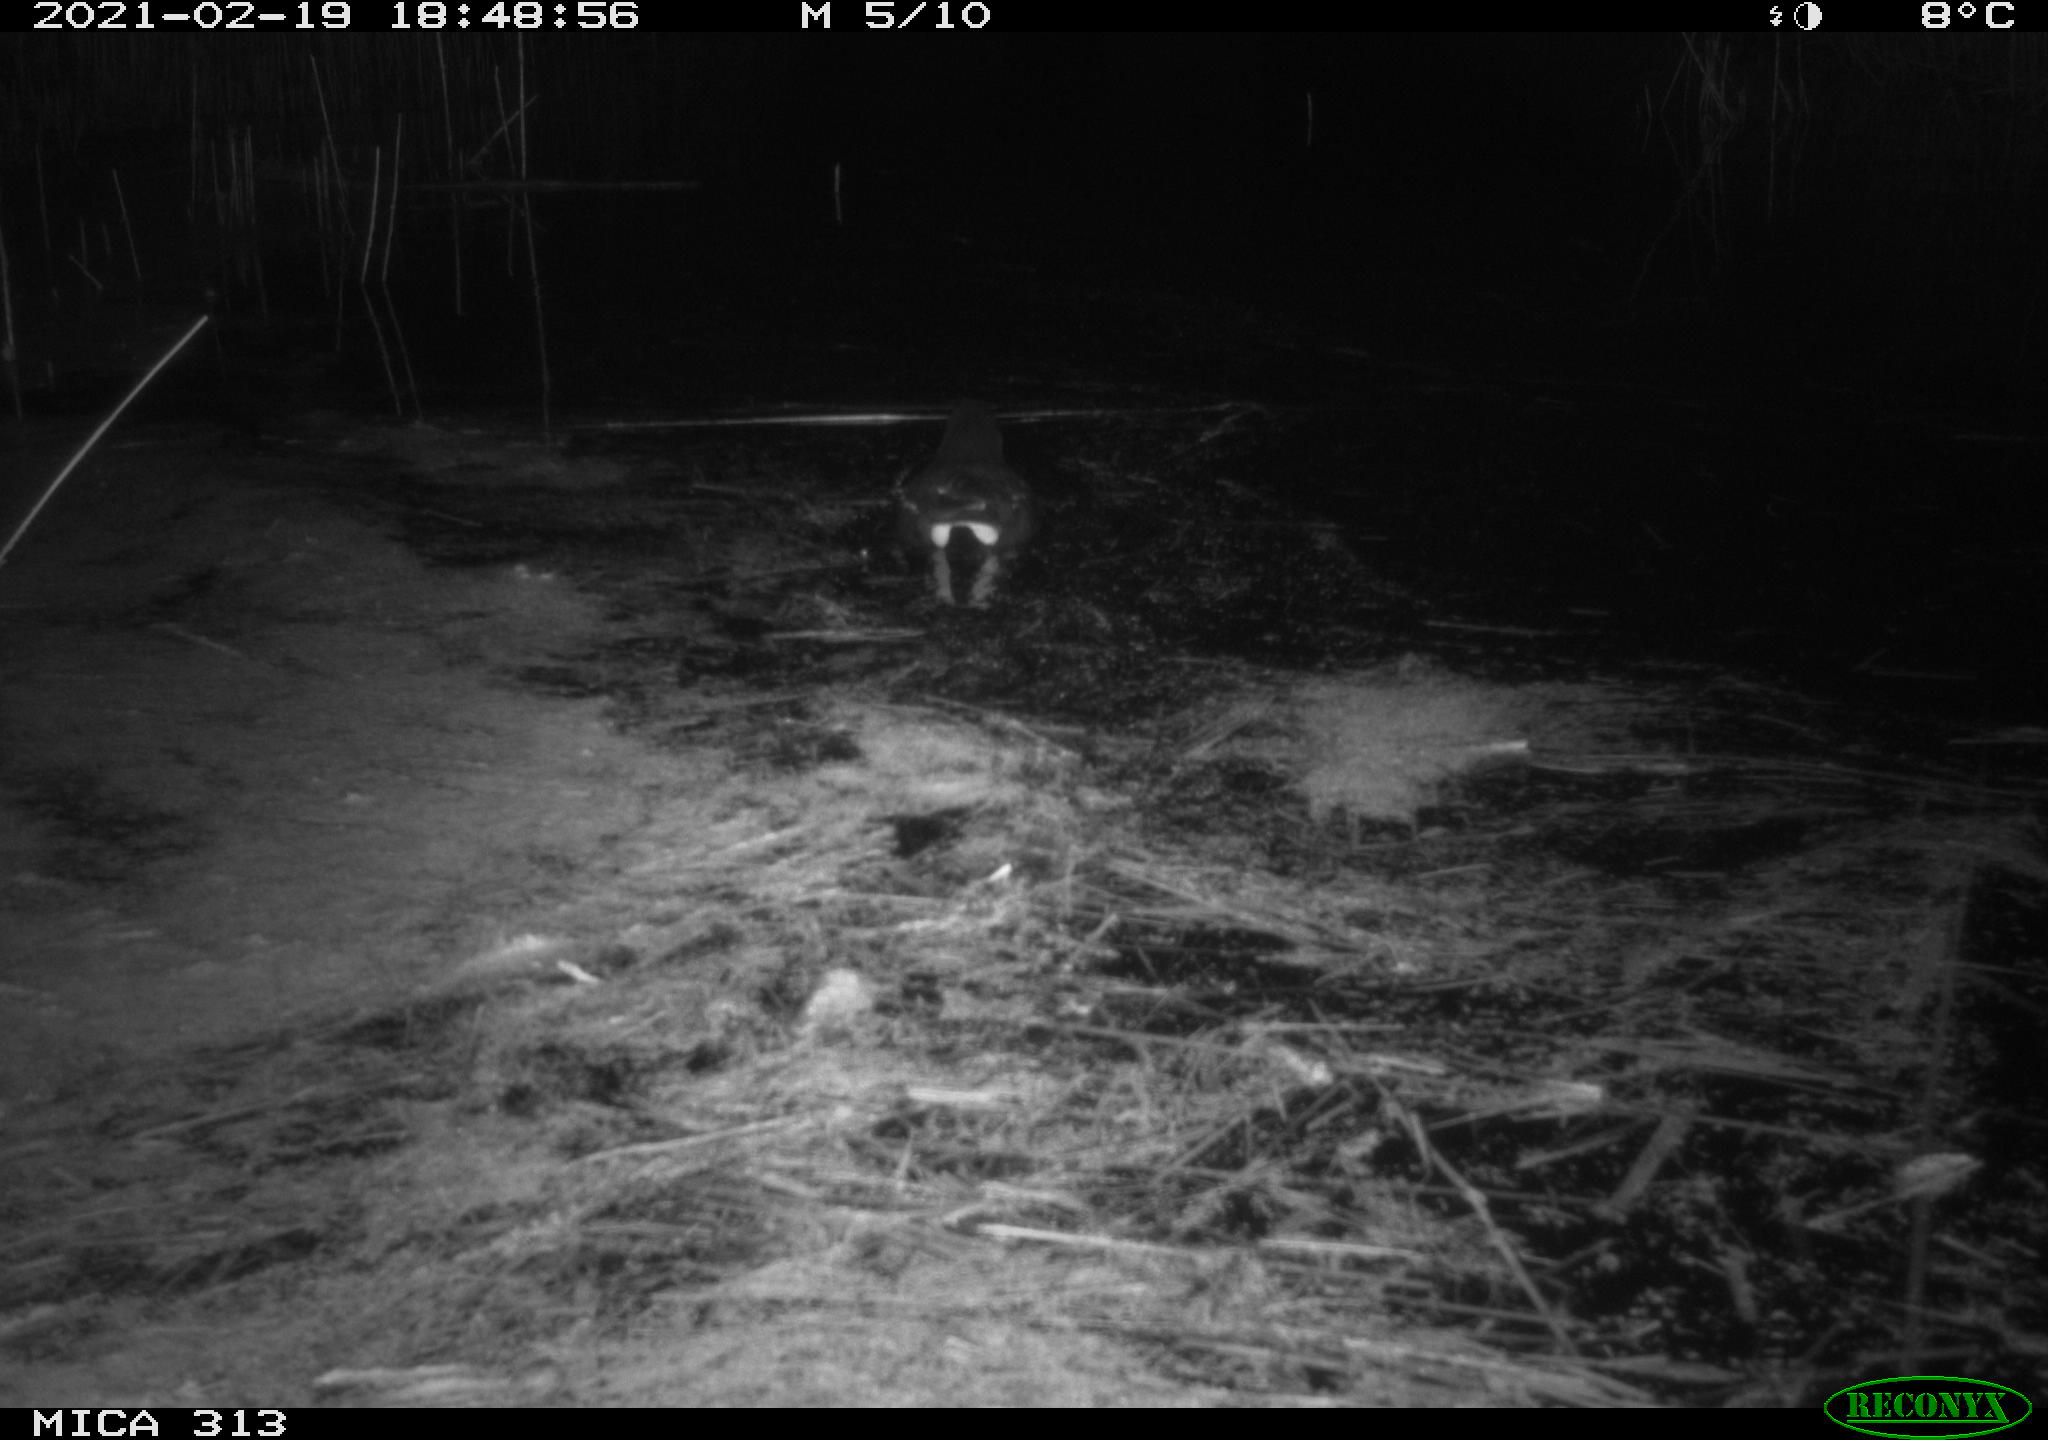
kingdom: Animalia
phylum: Chordata
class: Aves
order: Gruiformes
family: Rallidae
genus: Gallinula
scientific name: Gallinula chloropus
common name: Common moorhen
